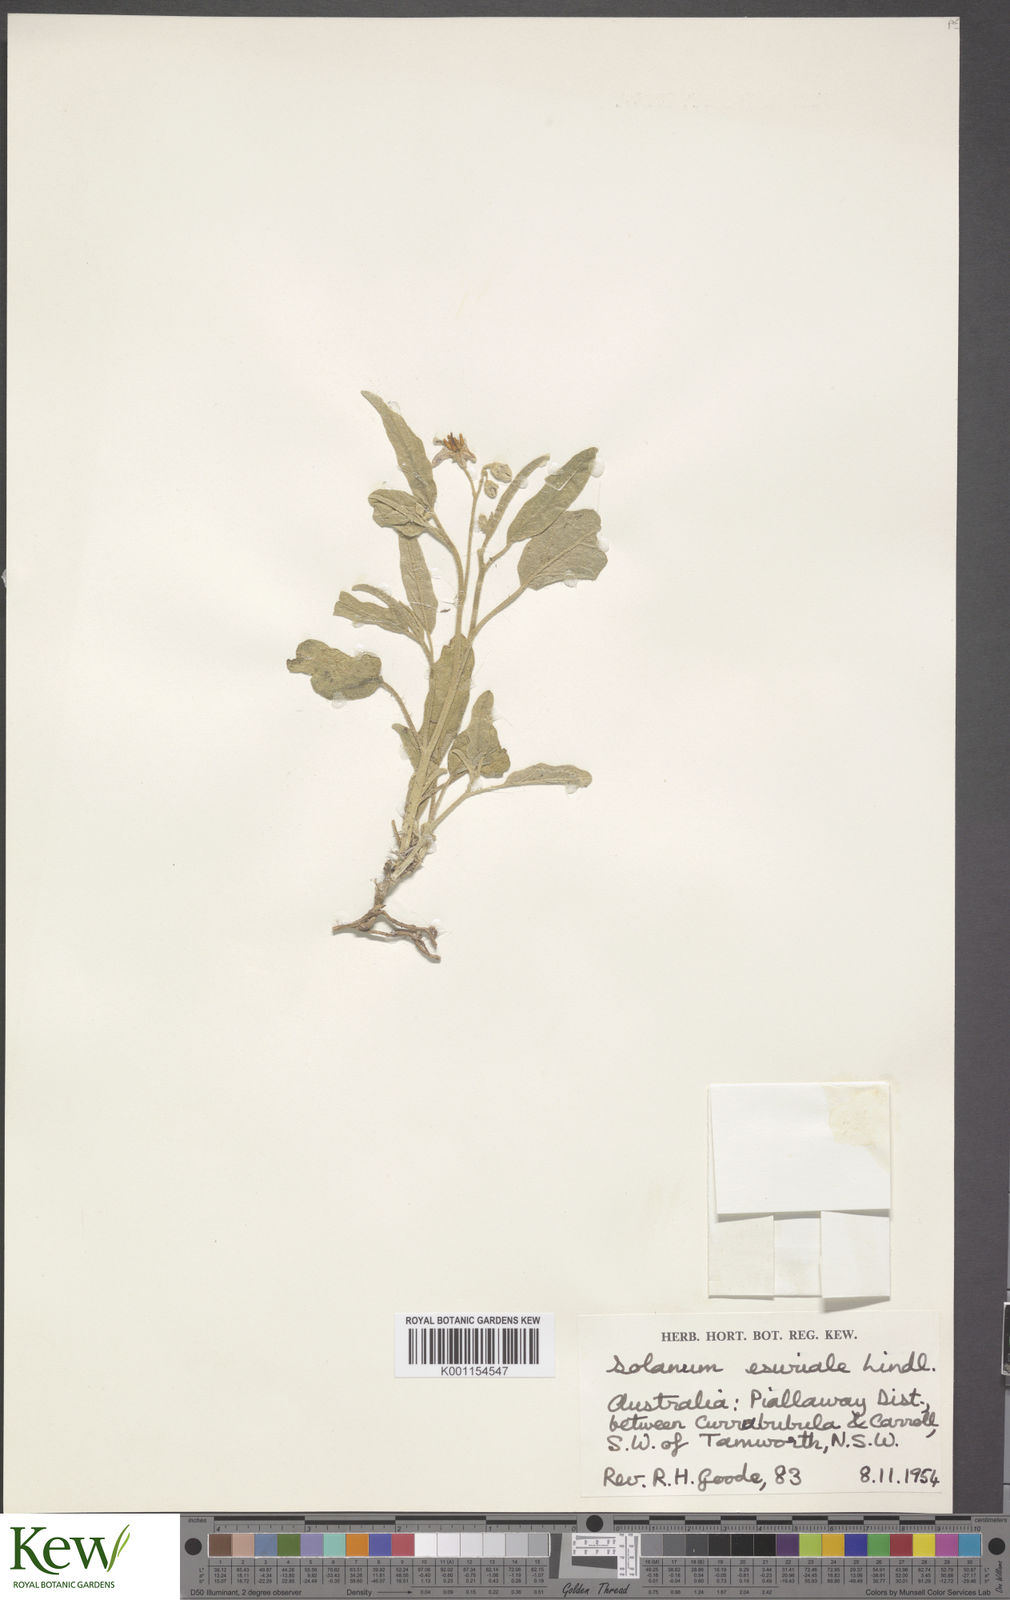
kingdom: Plantae
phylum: Tracheophyta
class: Magnoliopsida
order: Solanales
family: Solanaceae
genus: Solanum
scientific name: Solanum esuriale
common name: Wild tomato
